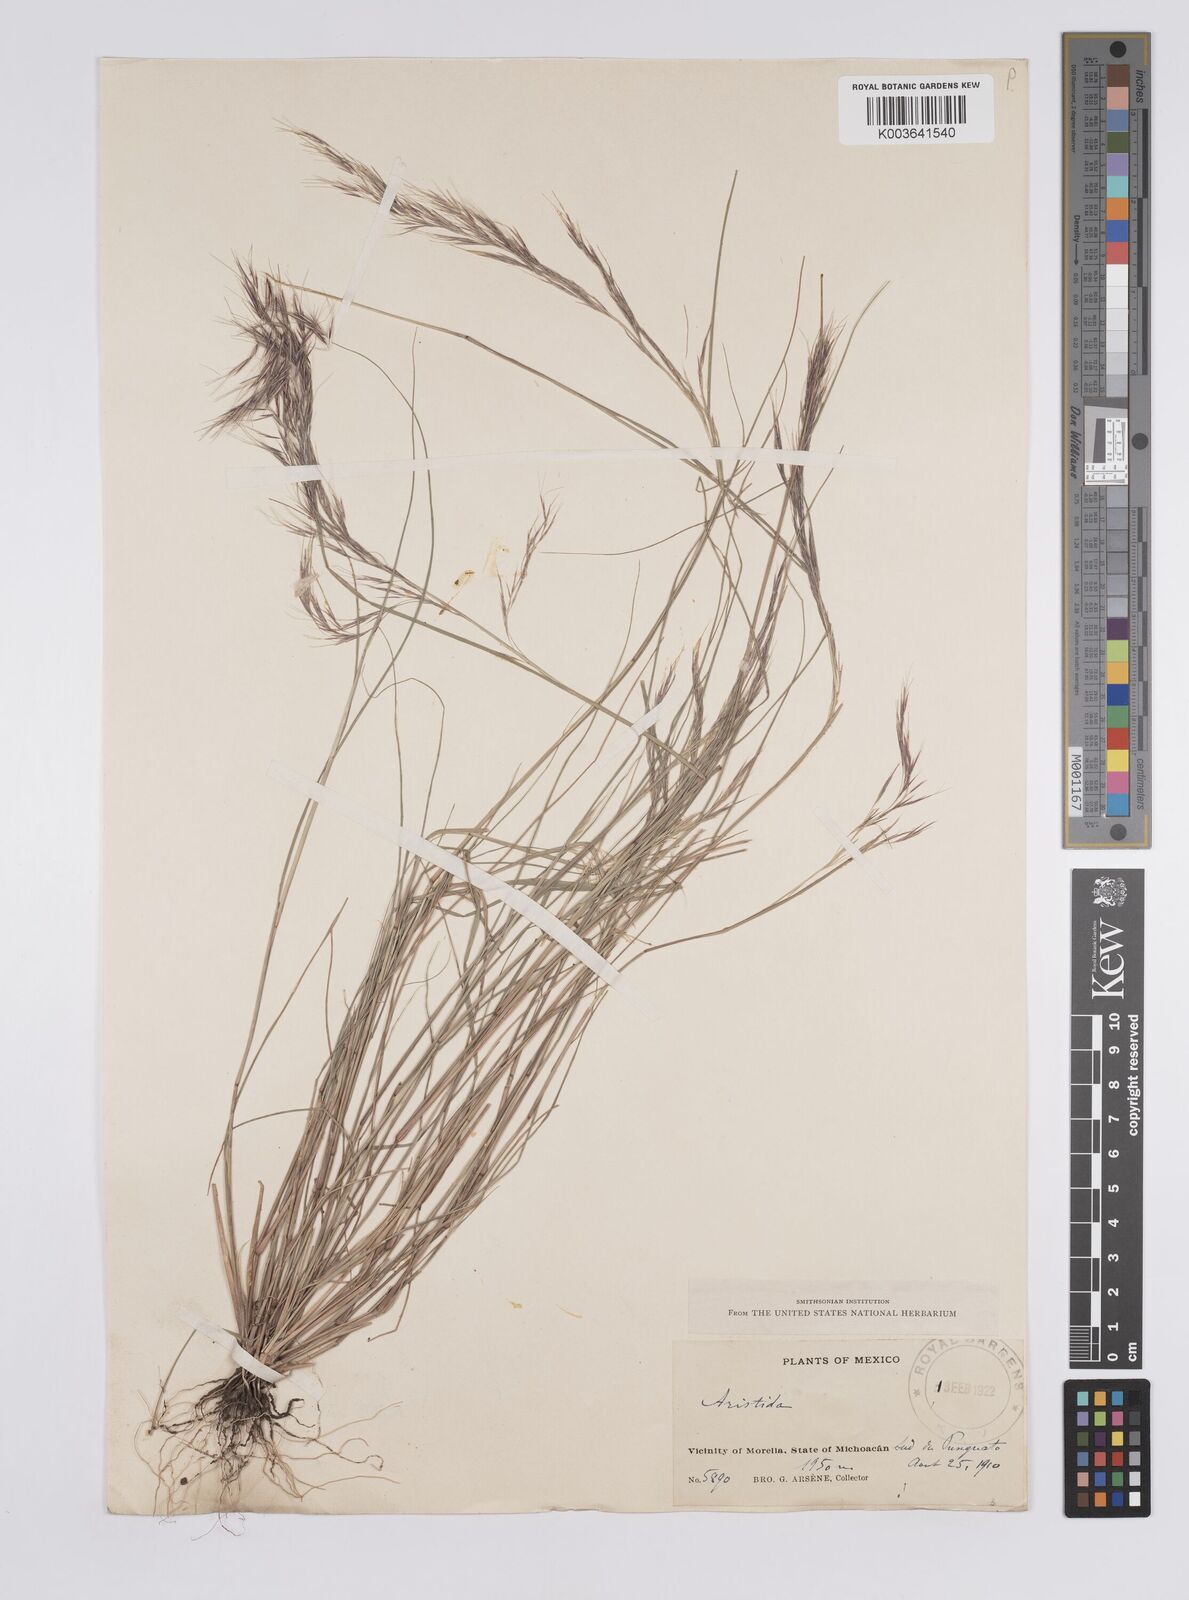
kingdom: Plantae
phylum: Tracheophyta
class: Liliopsida
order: Poales
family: Poaceae
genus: Aristida
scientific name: Aristida
